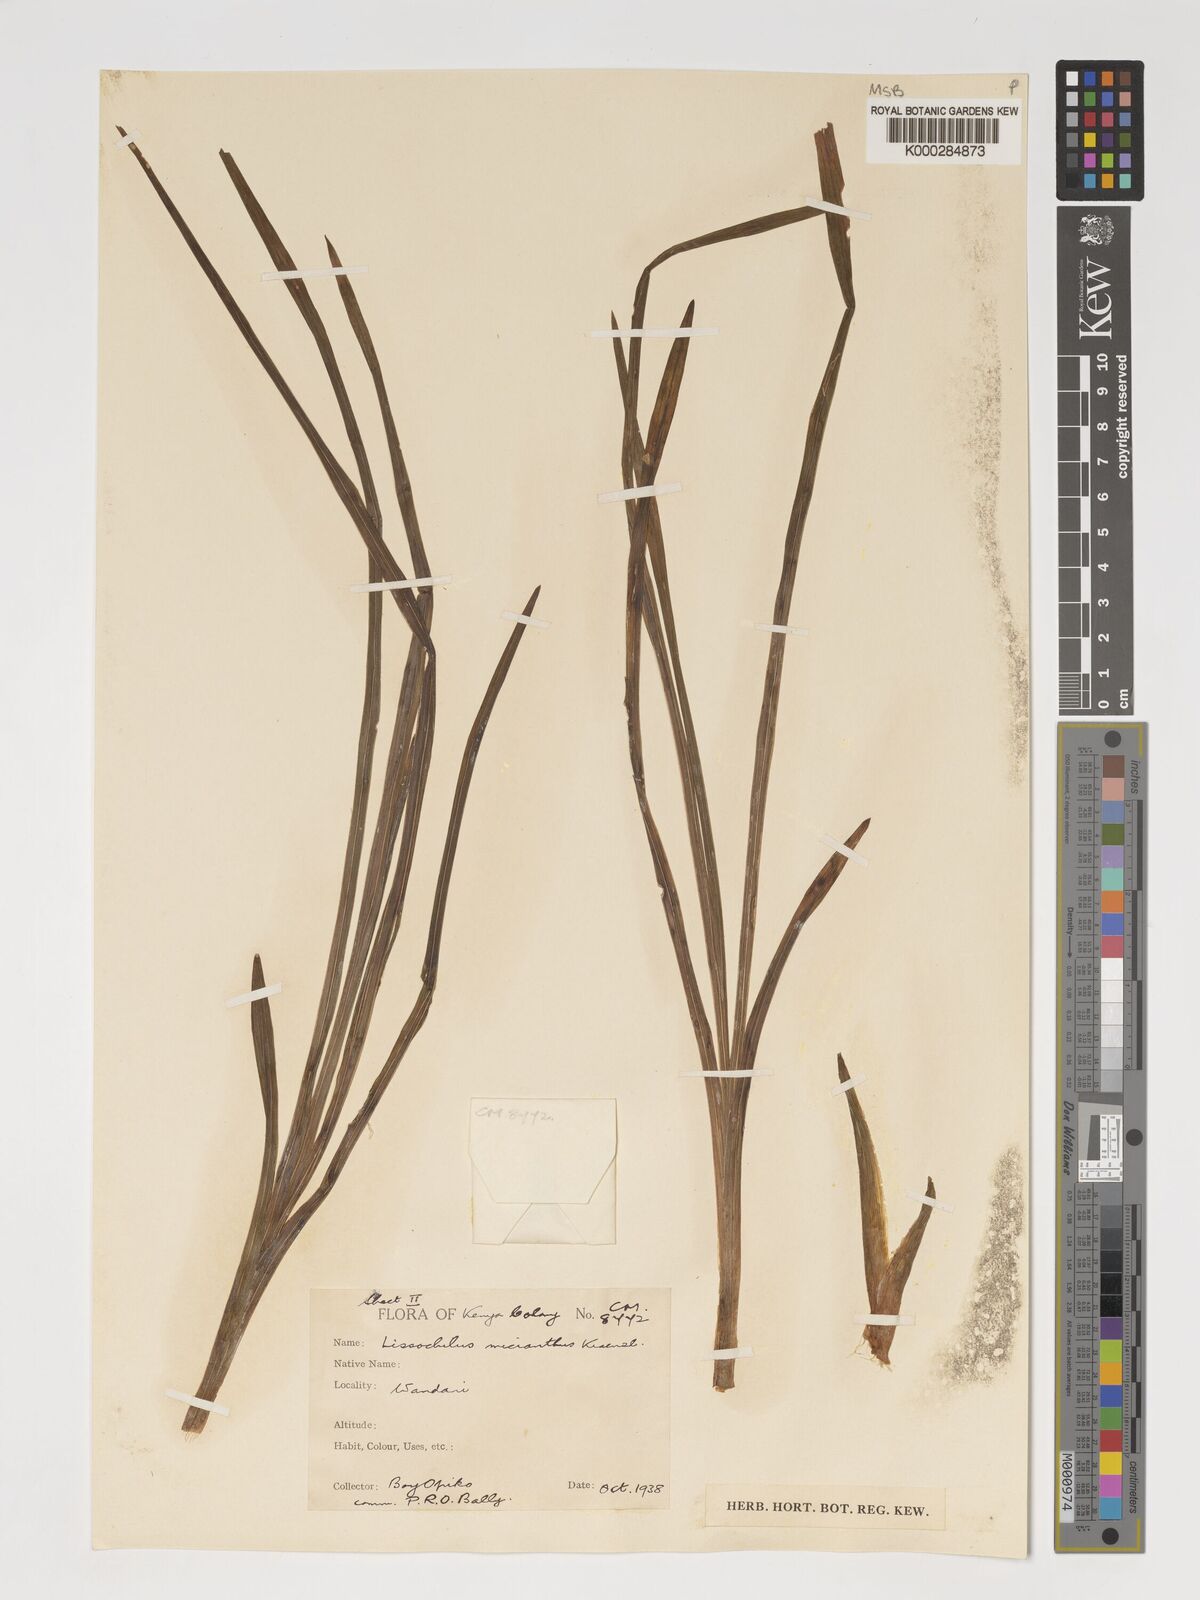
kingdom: Plantae
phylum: Tracheophyta
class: Liliopsida
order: Asparagales
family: Orchidaceae
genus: Eulophia
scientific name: Eulophia streptopetala
